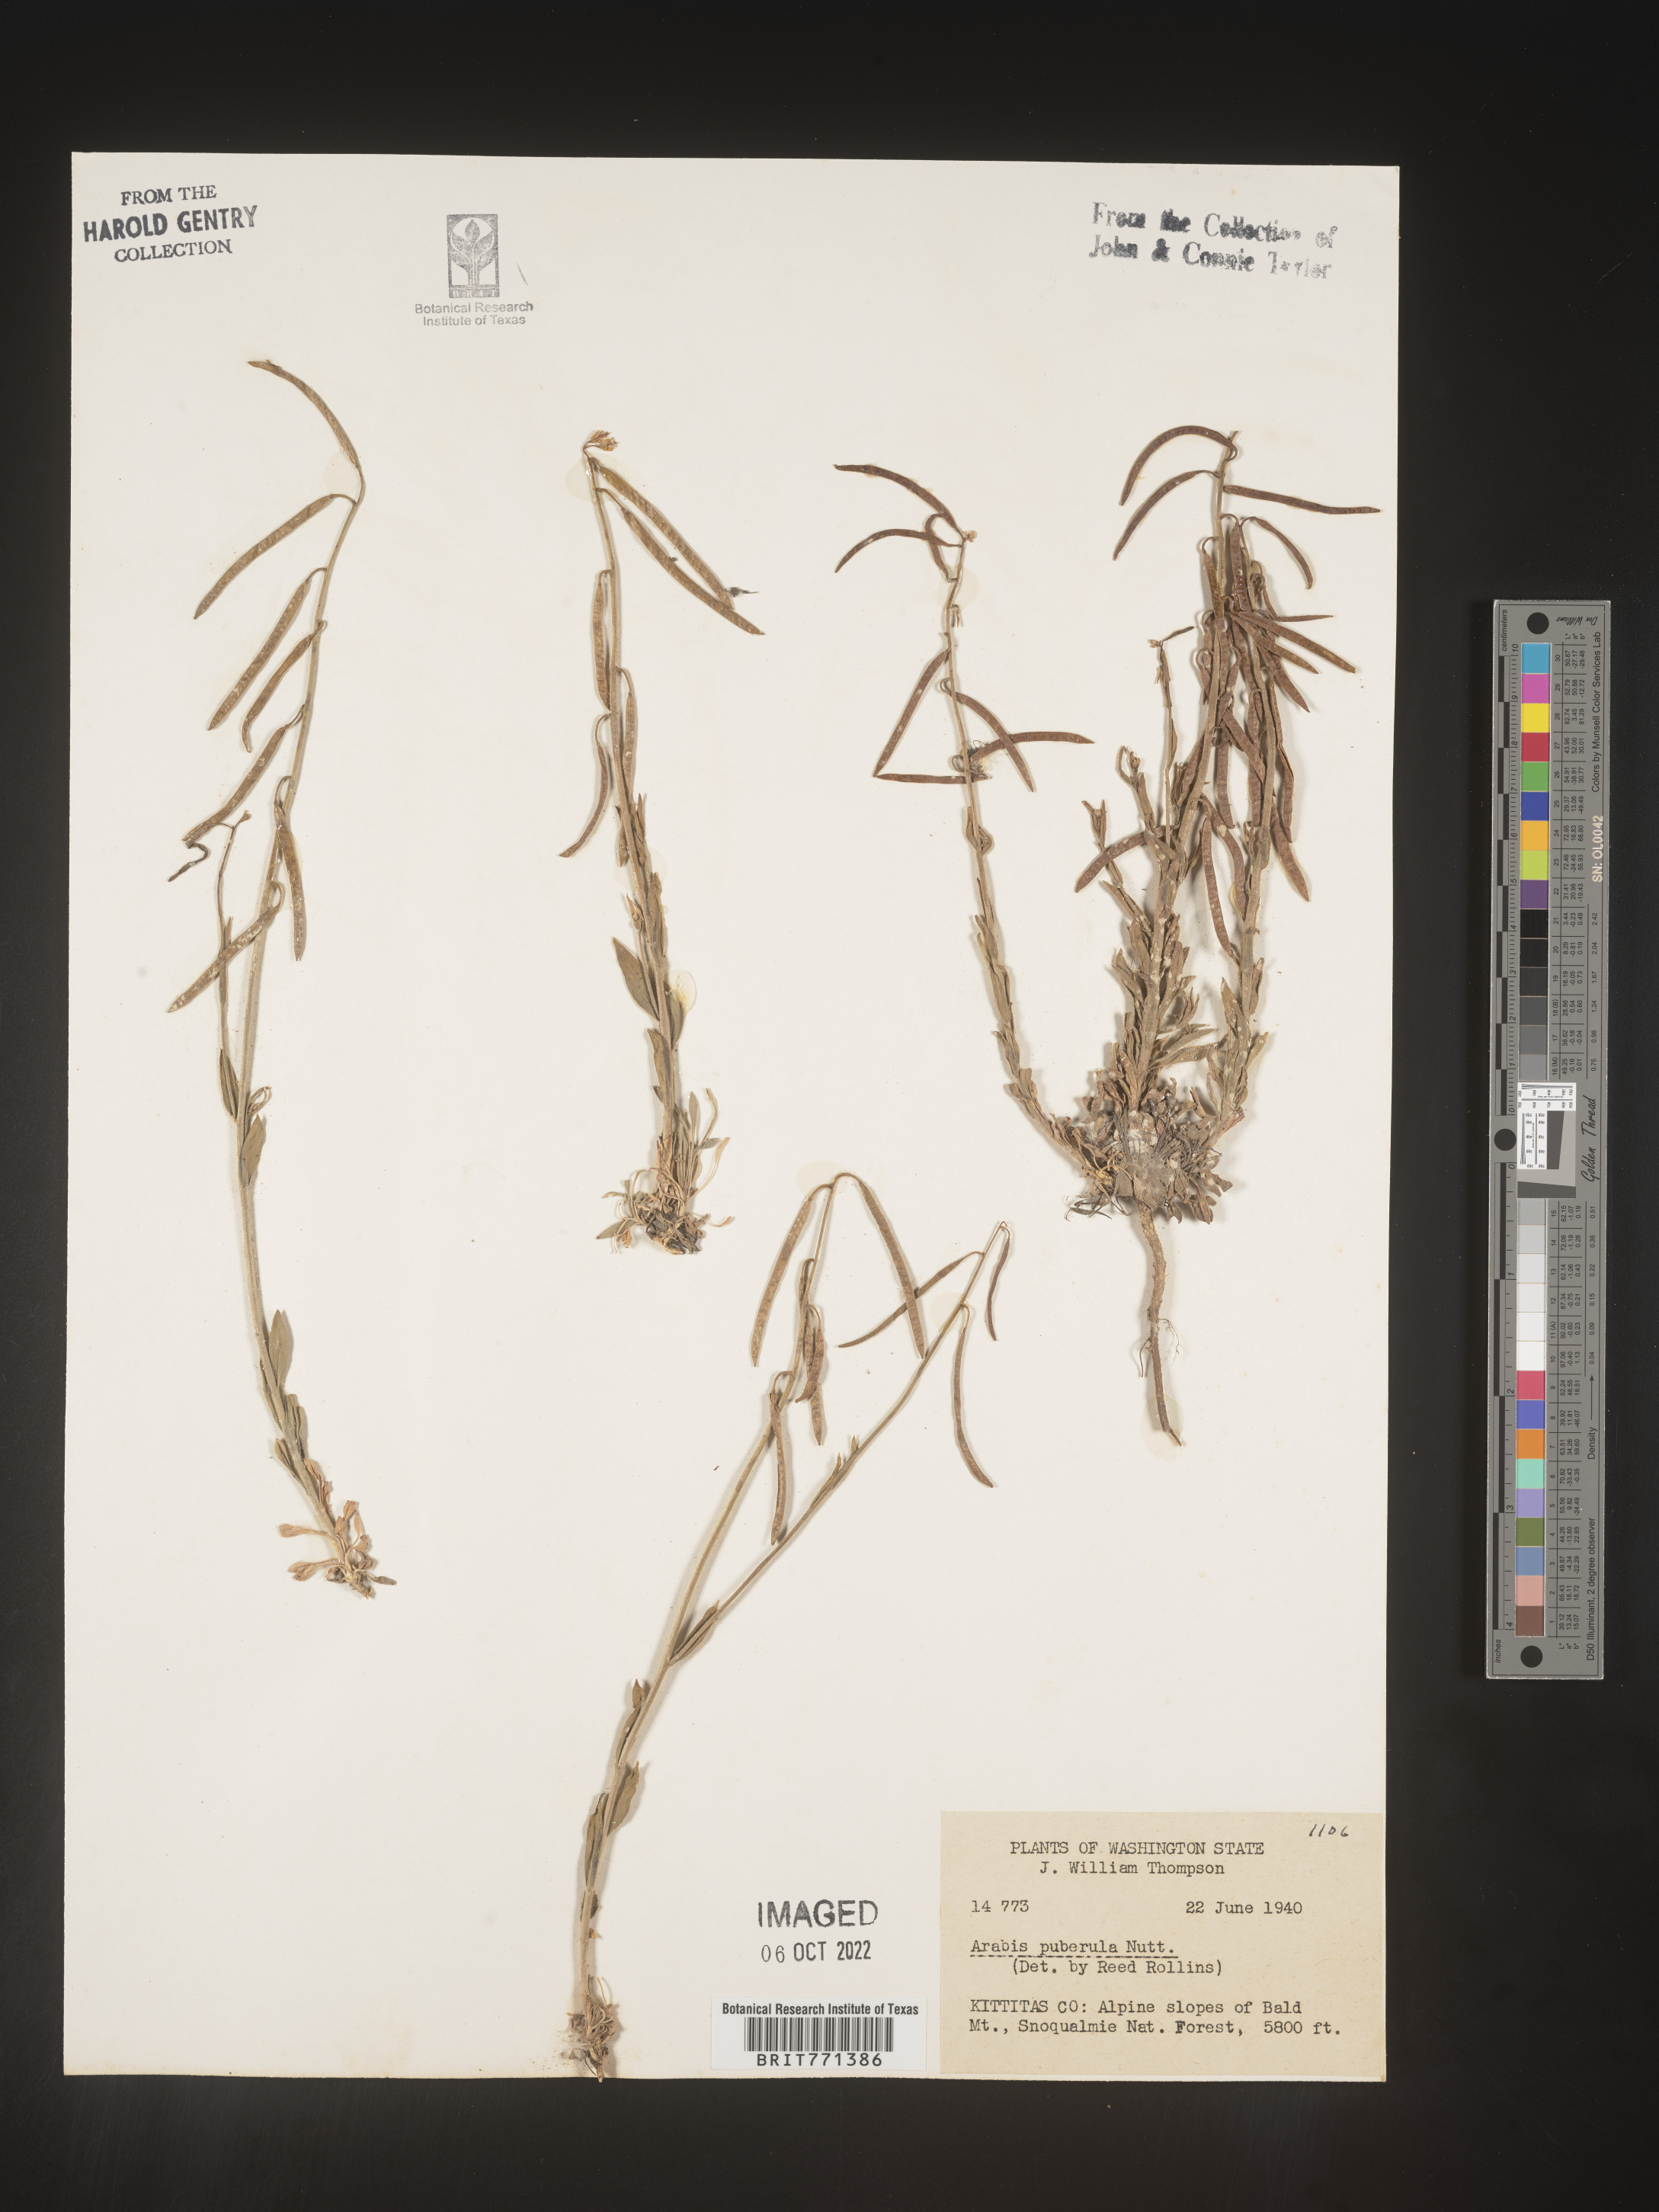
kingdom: Plantae
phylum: Tracheophyta
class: Magnoliopsida
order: Brassicales
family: Brassicaceae
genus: Arabis
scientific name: Arabis
